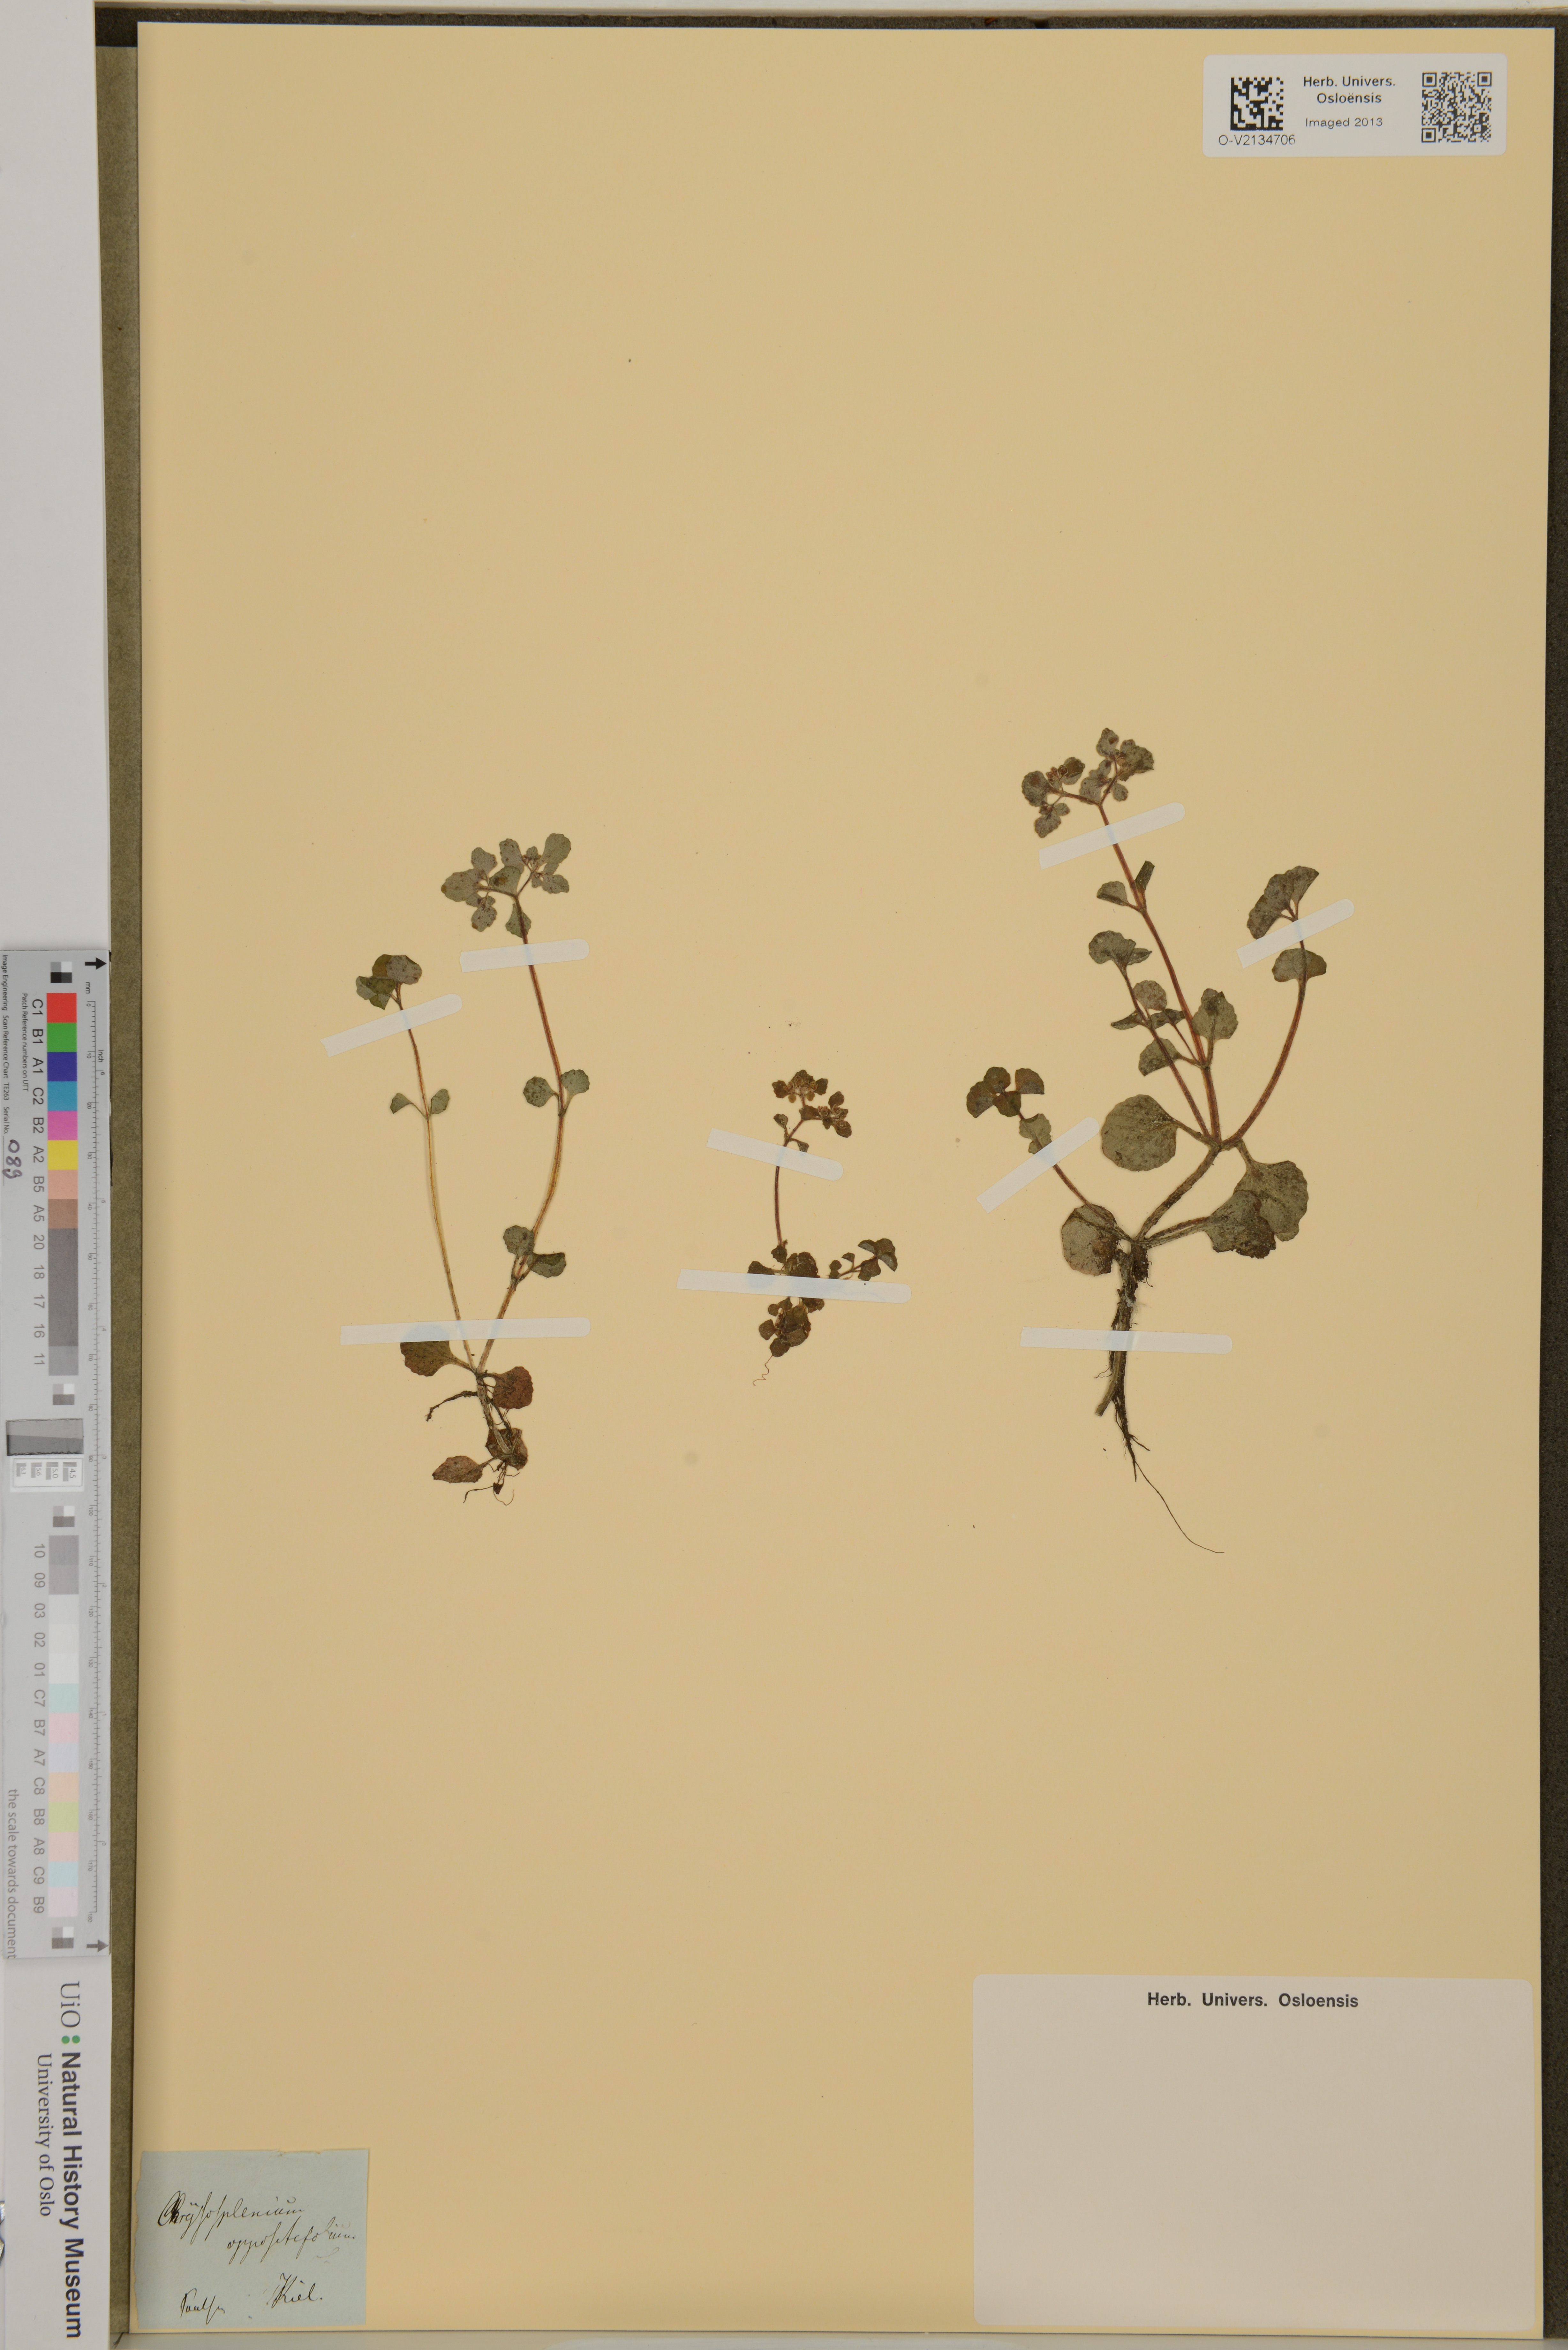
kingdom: Plantae
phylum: Tracheophyta
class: Magnoliopsida
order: Saxifragales
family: Saxifragaceae
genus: Chrysosplenium
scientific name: Chrysosplenium oppositifolium
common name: Opposite-leaved golden-saxifrage
